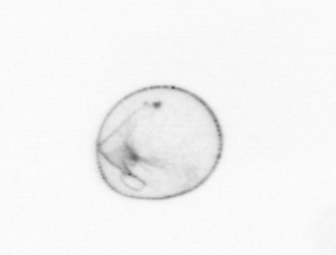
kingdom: Chromista
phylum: Myzozoa
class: Dinophyceae
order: Noctilucales
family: Noctilucaceae
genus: Noctiluca
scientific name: Noctiluca scintillans
